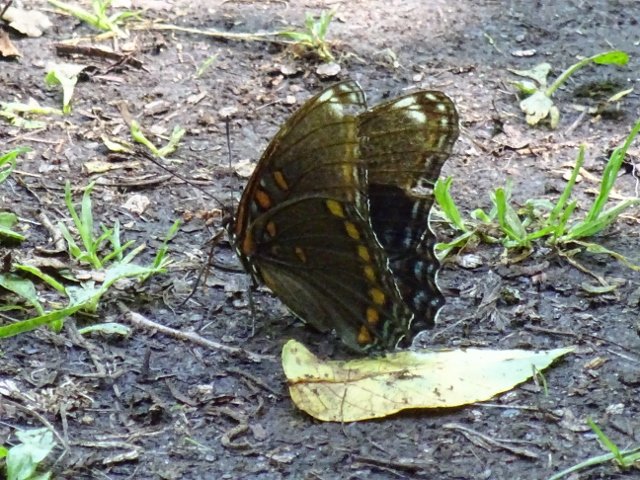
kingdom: Animalia
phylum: Arthropoda
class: Insecta
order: Lepidoptera
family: Nymphalidae
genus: Limenitis
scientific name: Limenitis astyanax
